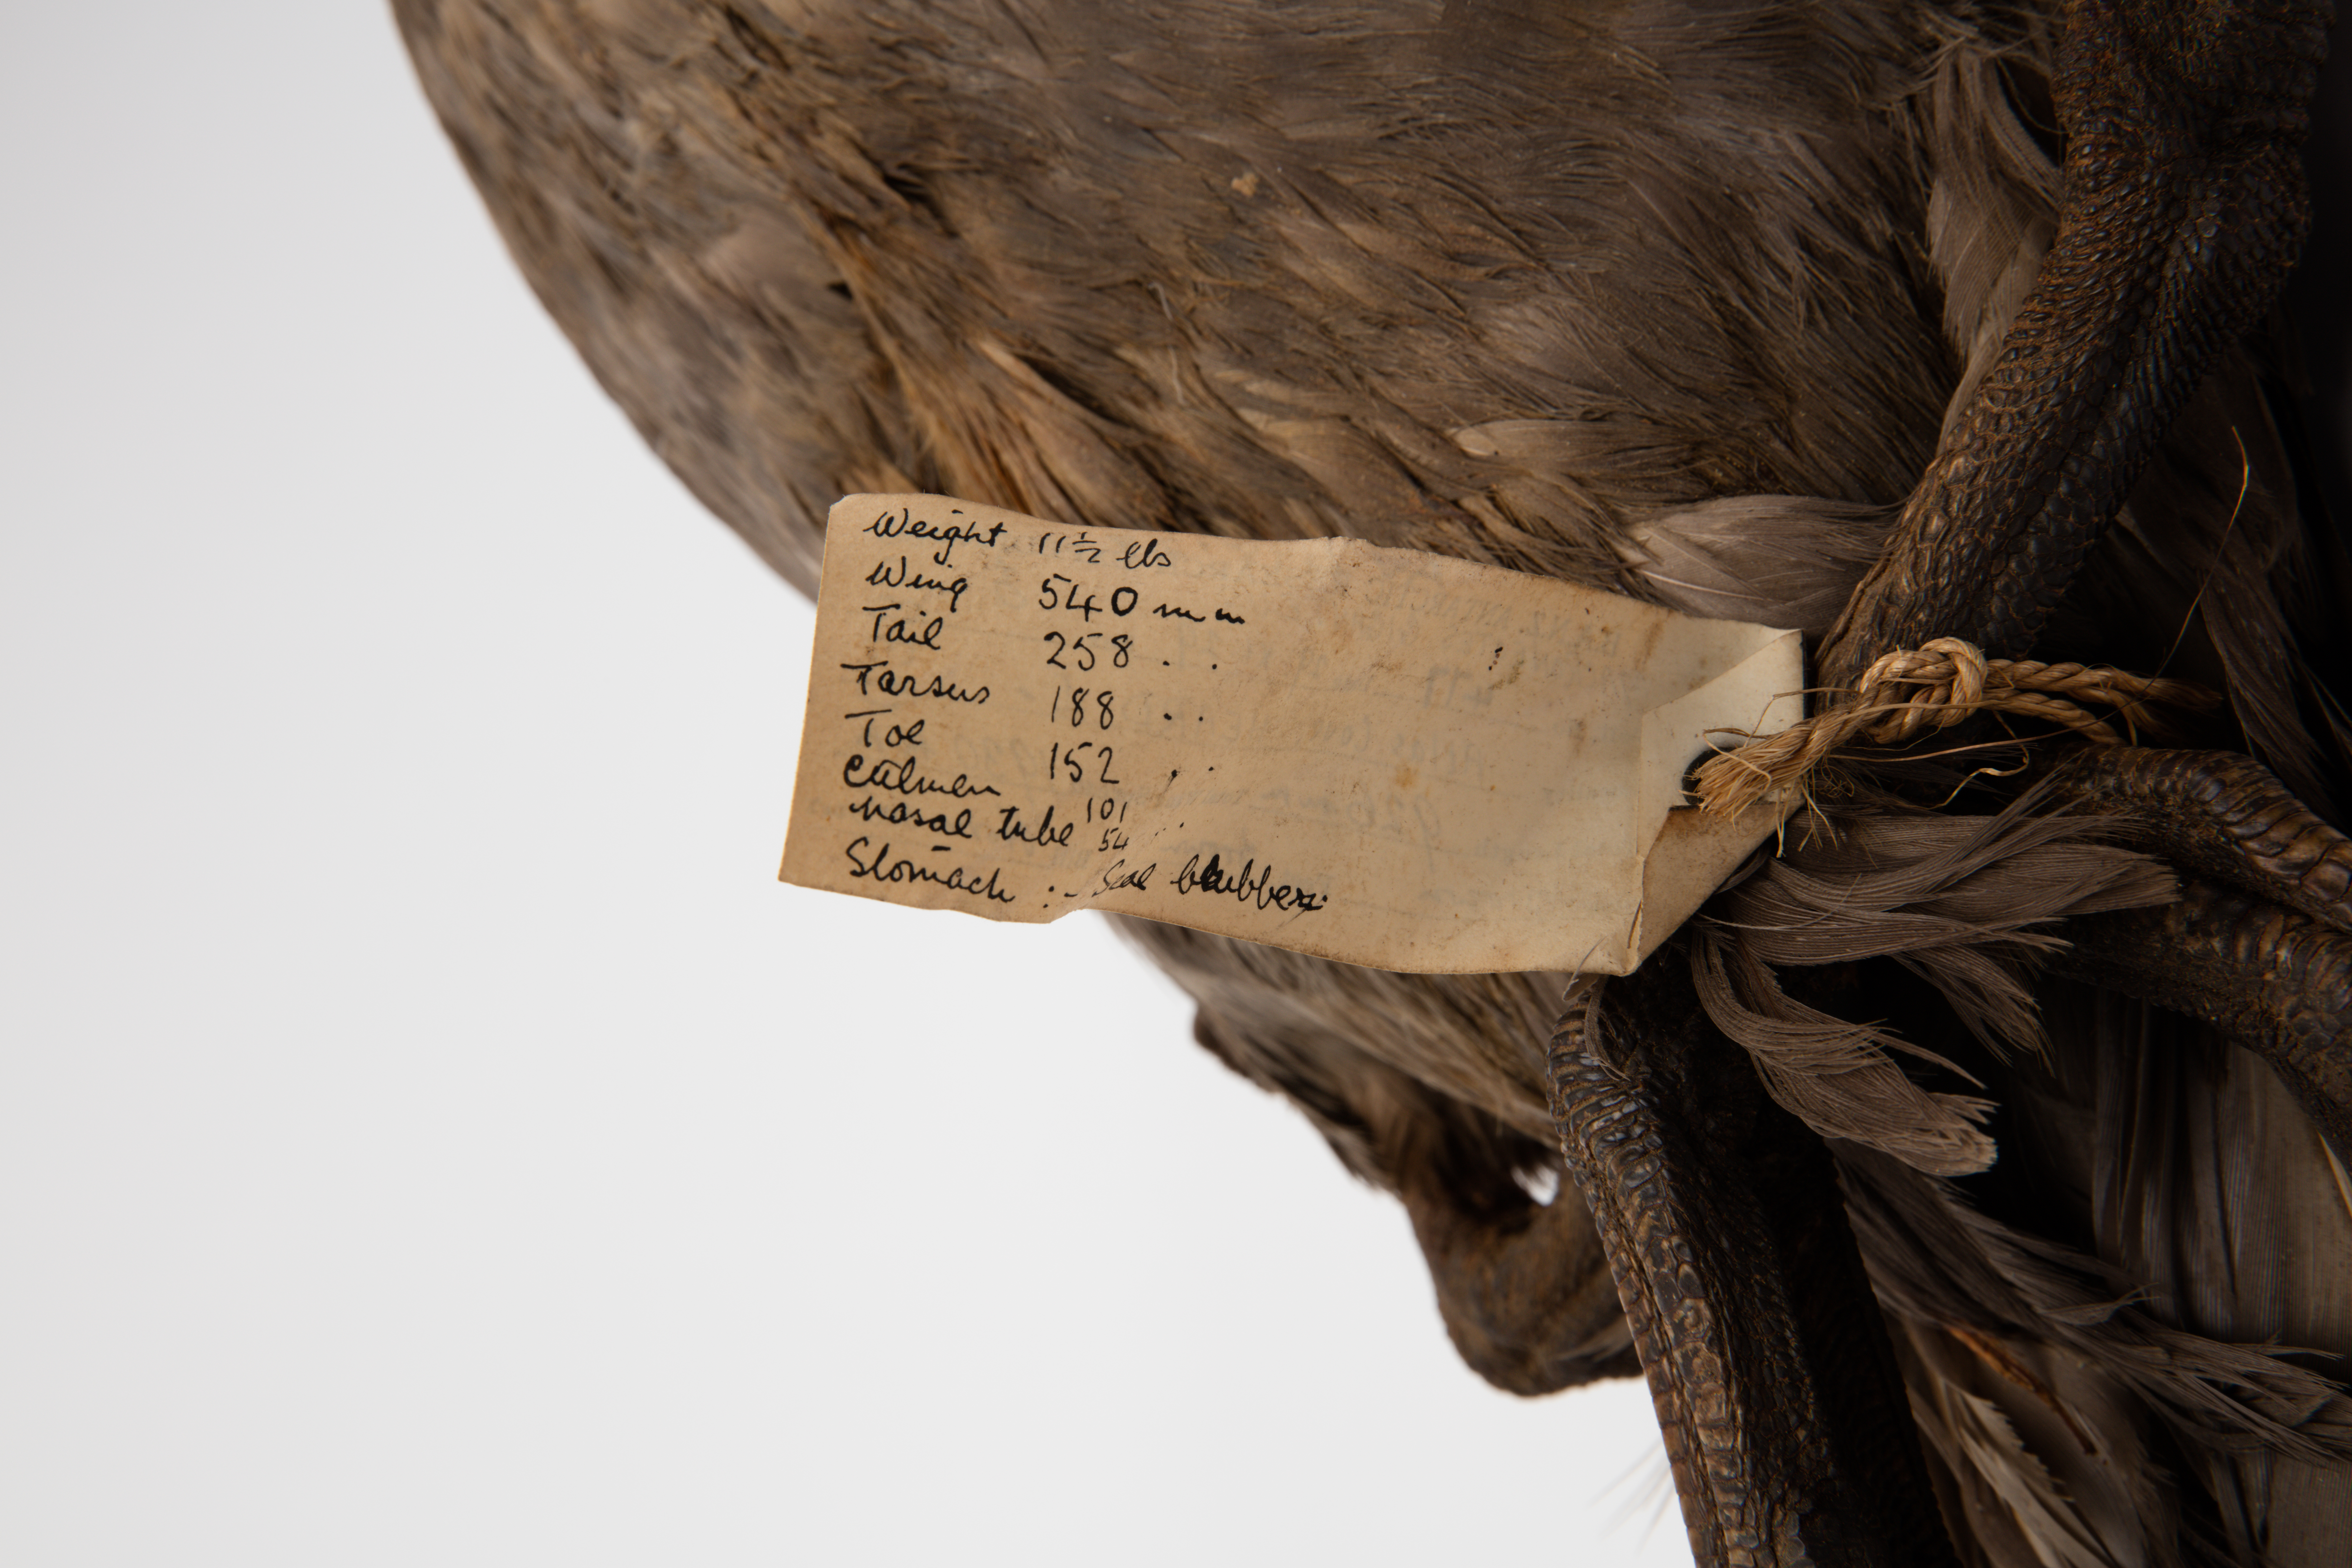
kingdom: Animalia
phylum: Chordata
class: Aves
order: Procellariiformes
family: Procellariidae
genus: Macronectes
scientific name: Macronectes giganteus
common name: Southern giant petrel
